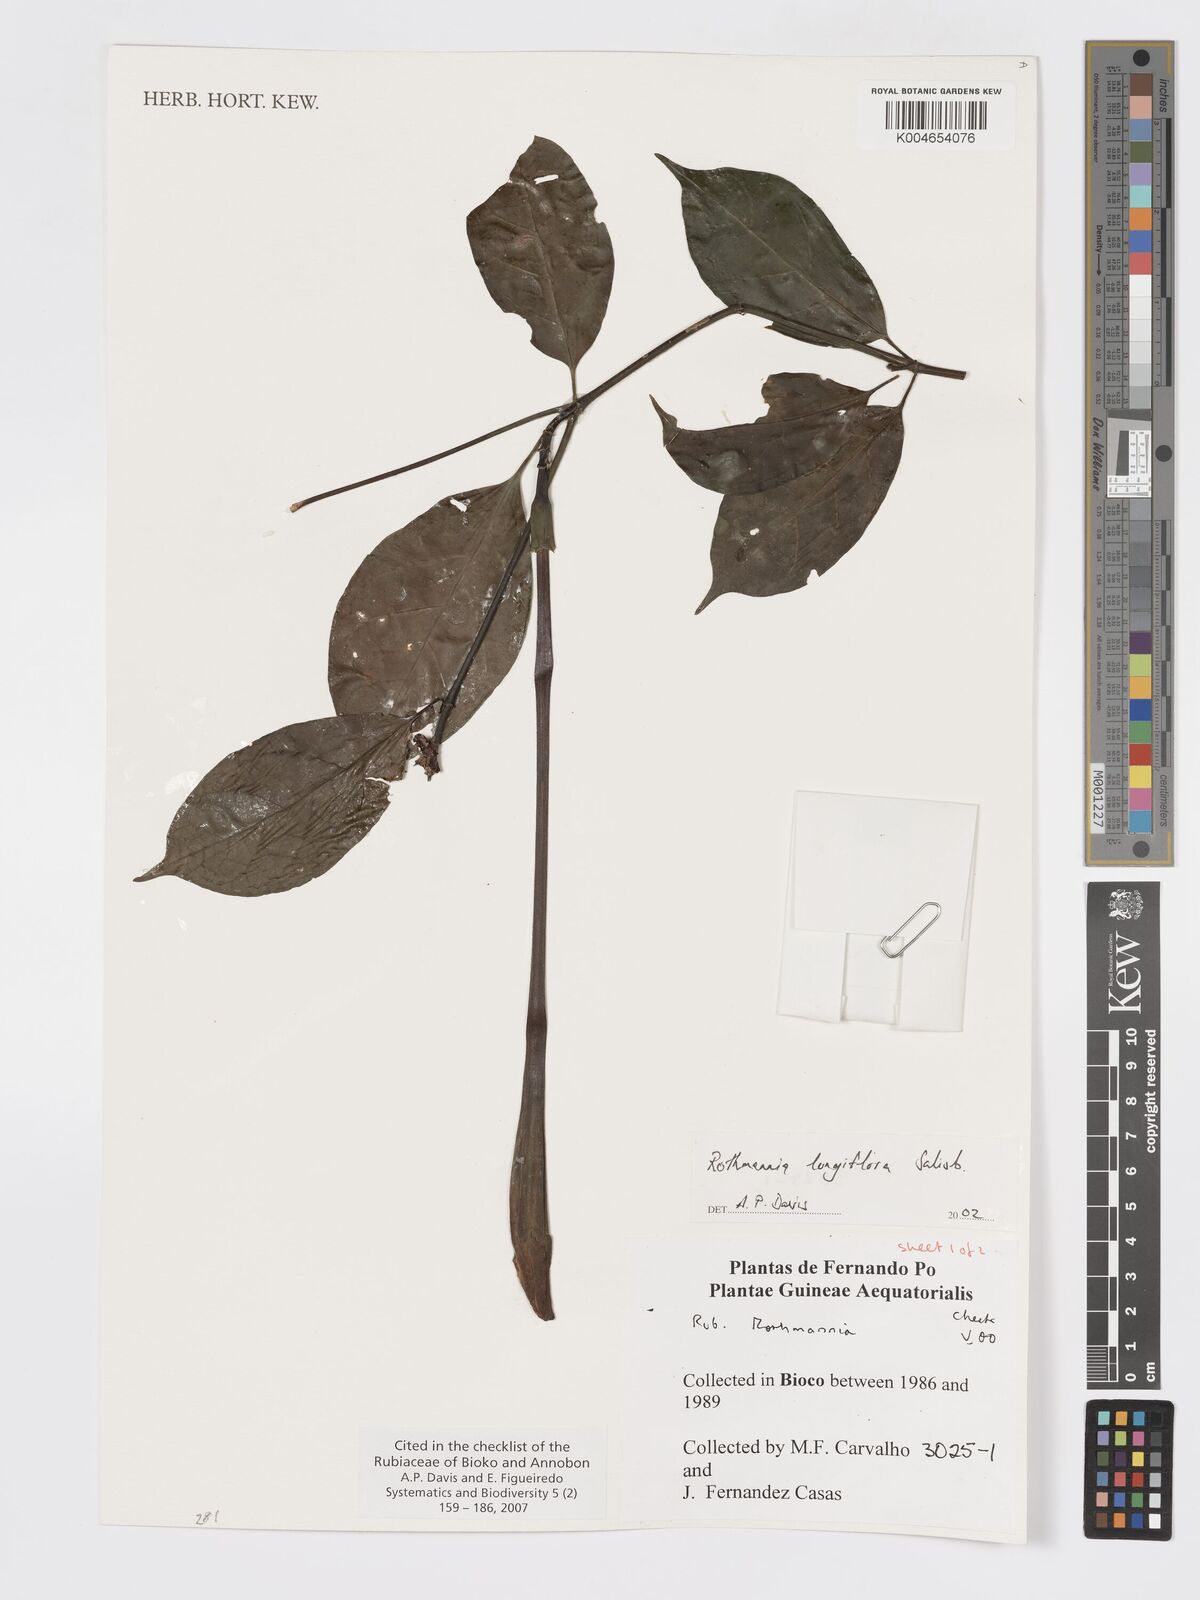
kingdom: Plantae
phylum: Tracheophyta
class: Magnoliopsida
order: Gentianales
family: Rubiaceae
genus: Rothmannia
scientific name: Rothmannia longiflora
